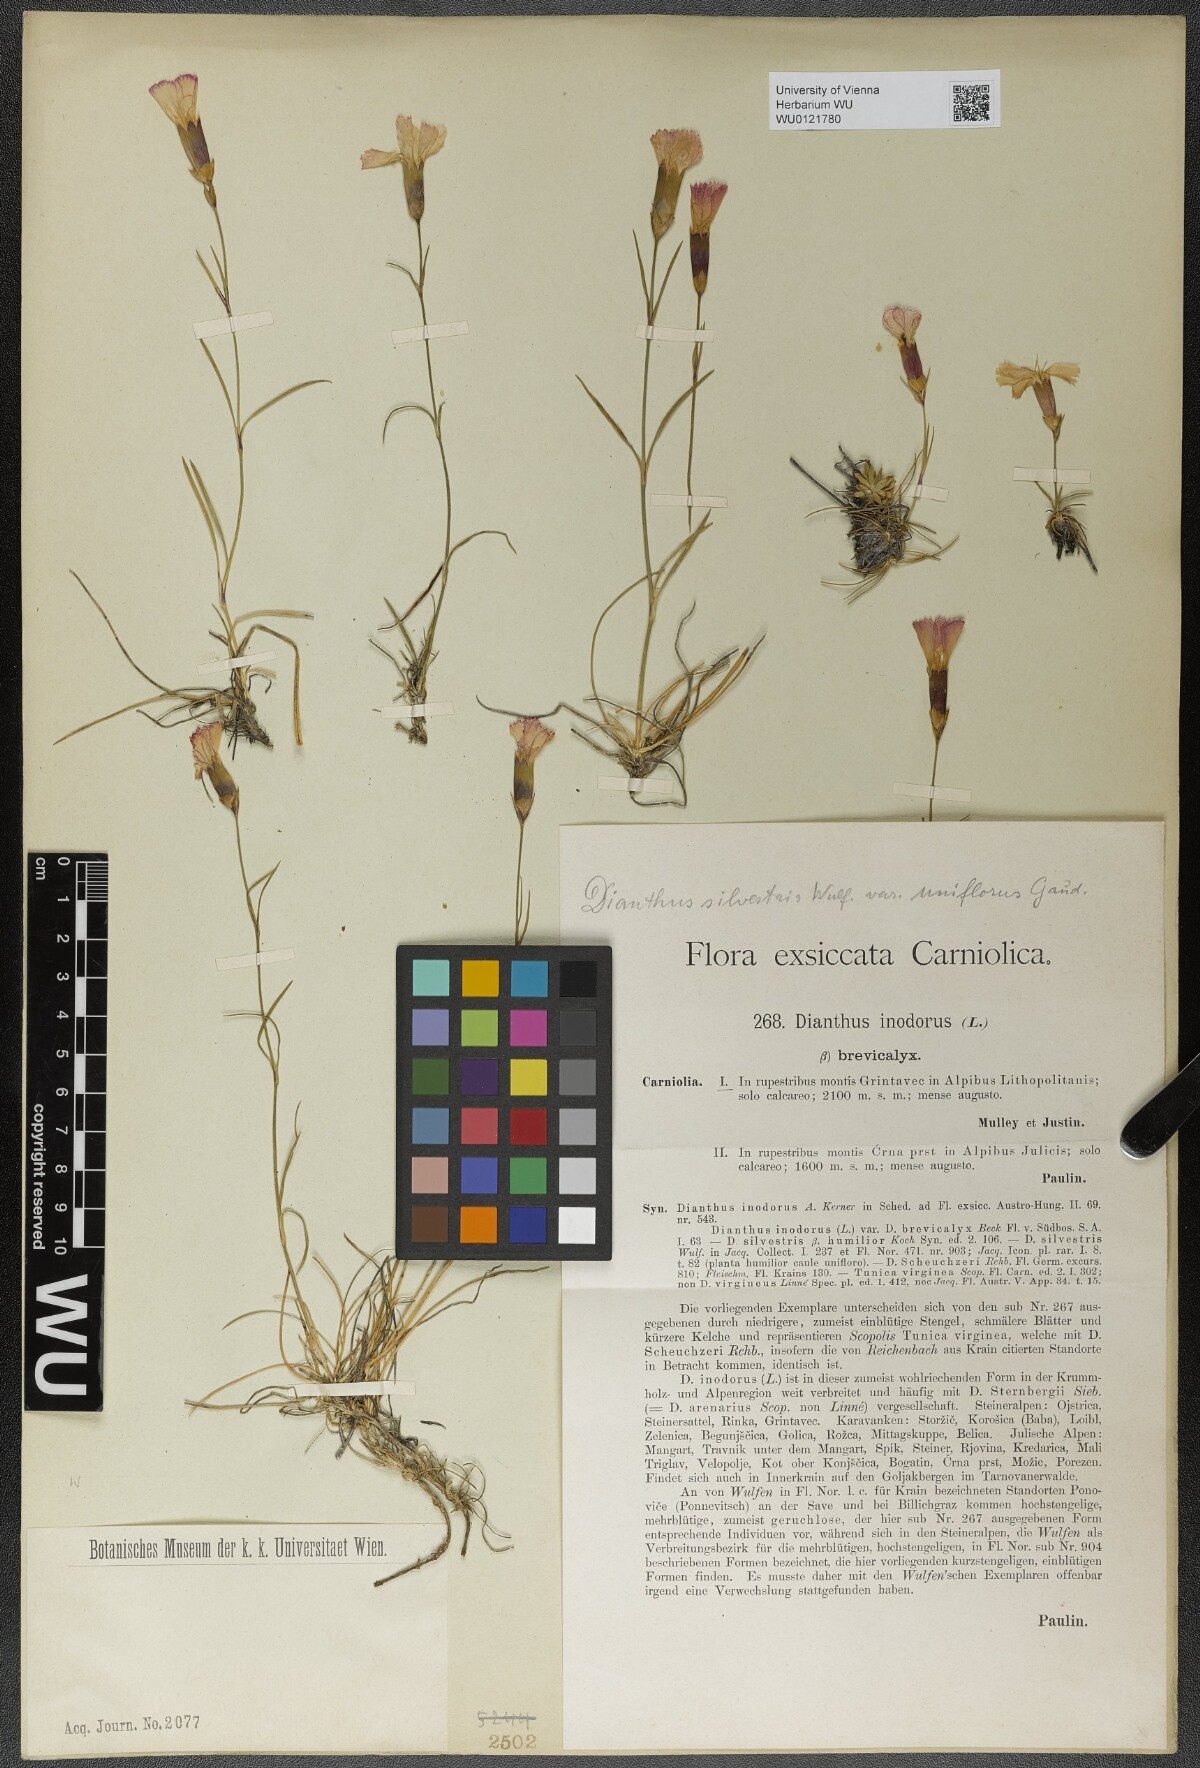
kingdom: Plantae
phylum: Tracheophyta
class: Magnoliopsida
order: Caryophyllales
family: Caryophyllaceae
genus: Dianthus
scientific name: Dianthus sylvestris
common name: Wood pink
